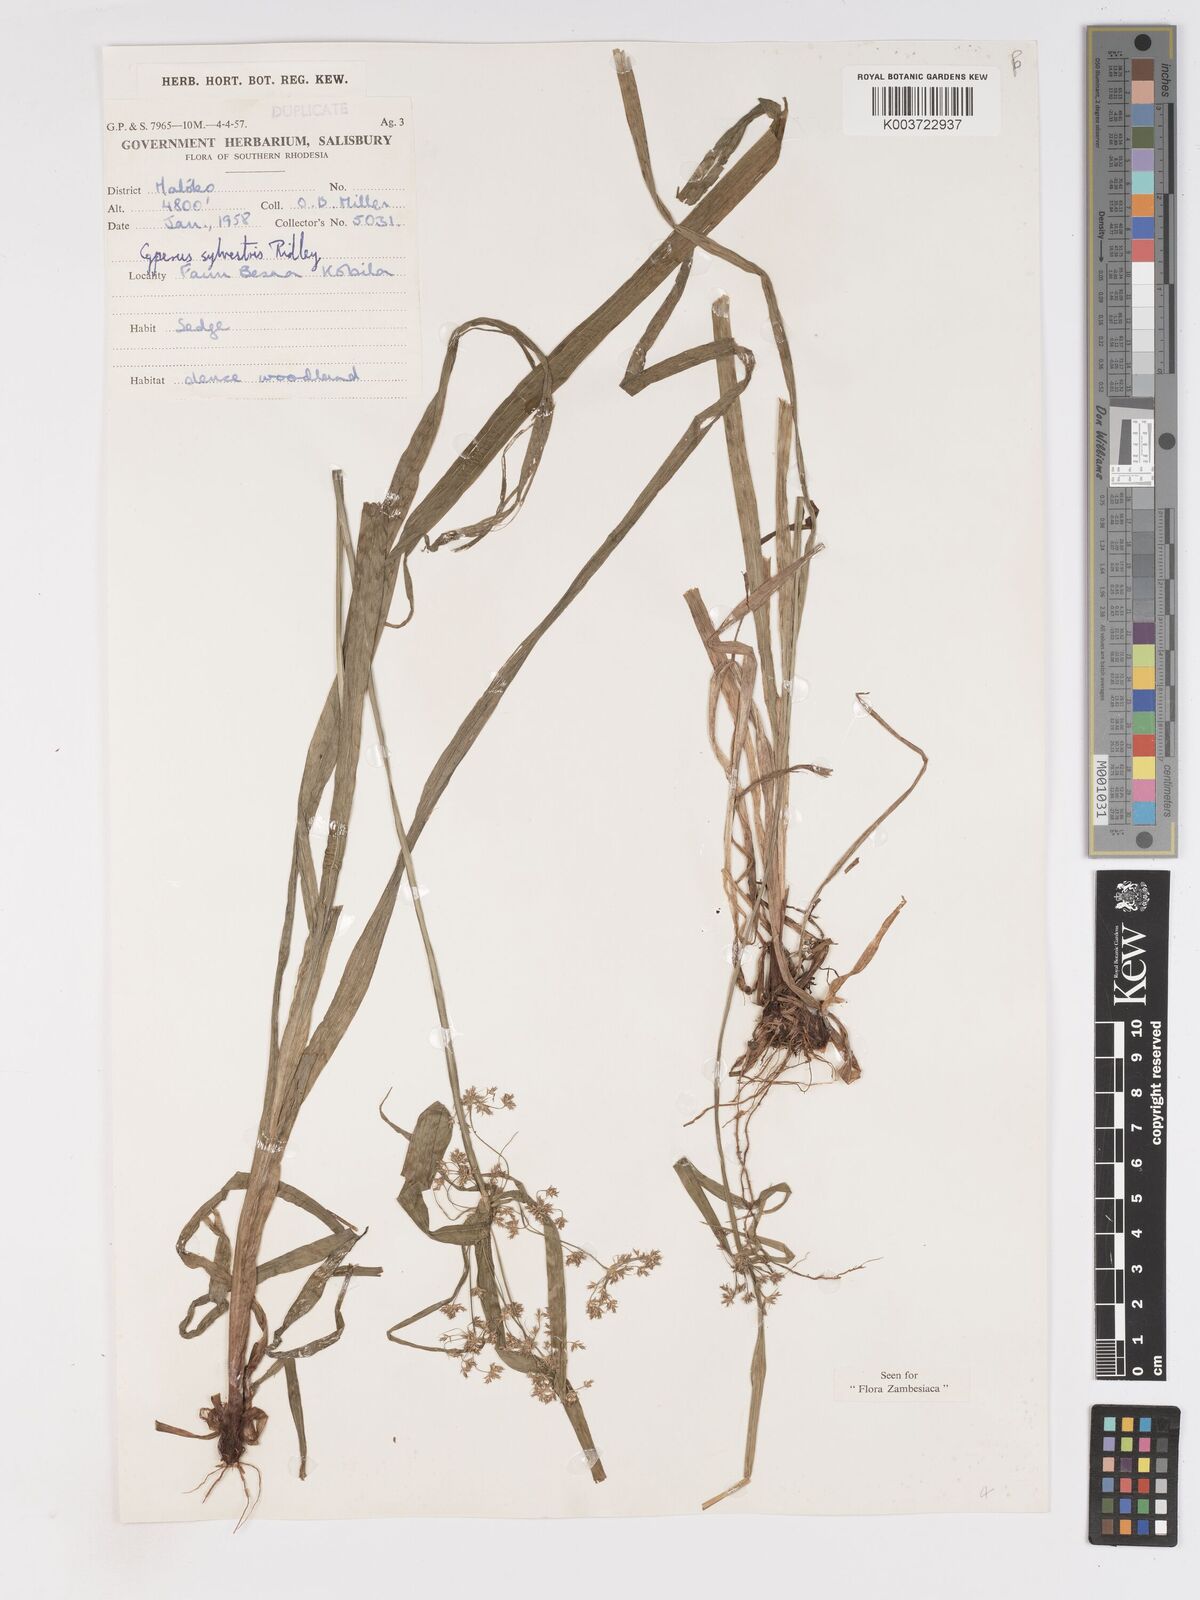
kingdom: Plantae
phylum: Tracheophyta
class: Liliopsida
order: Poales
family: Cyperaceae
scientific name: Cyperaceae
